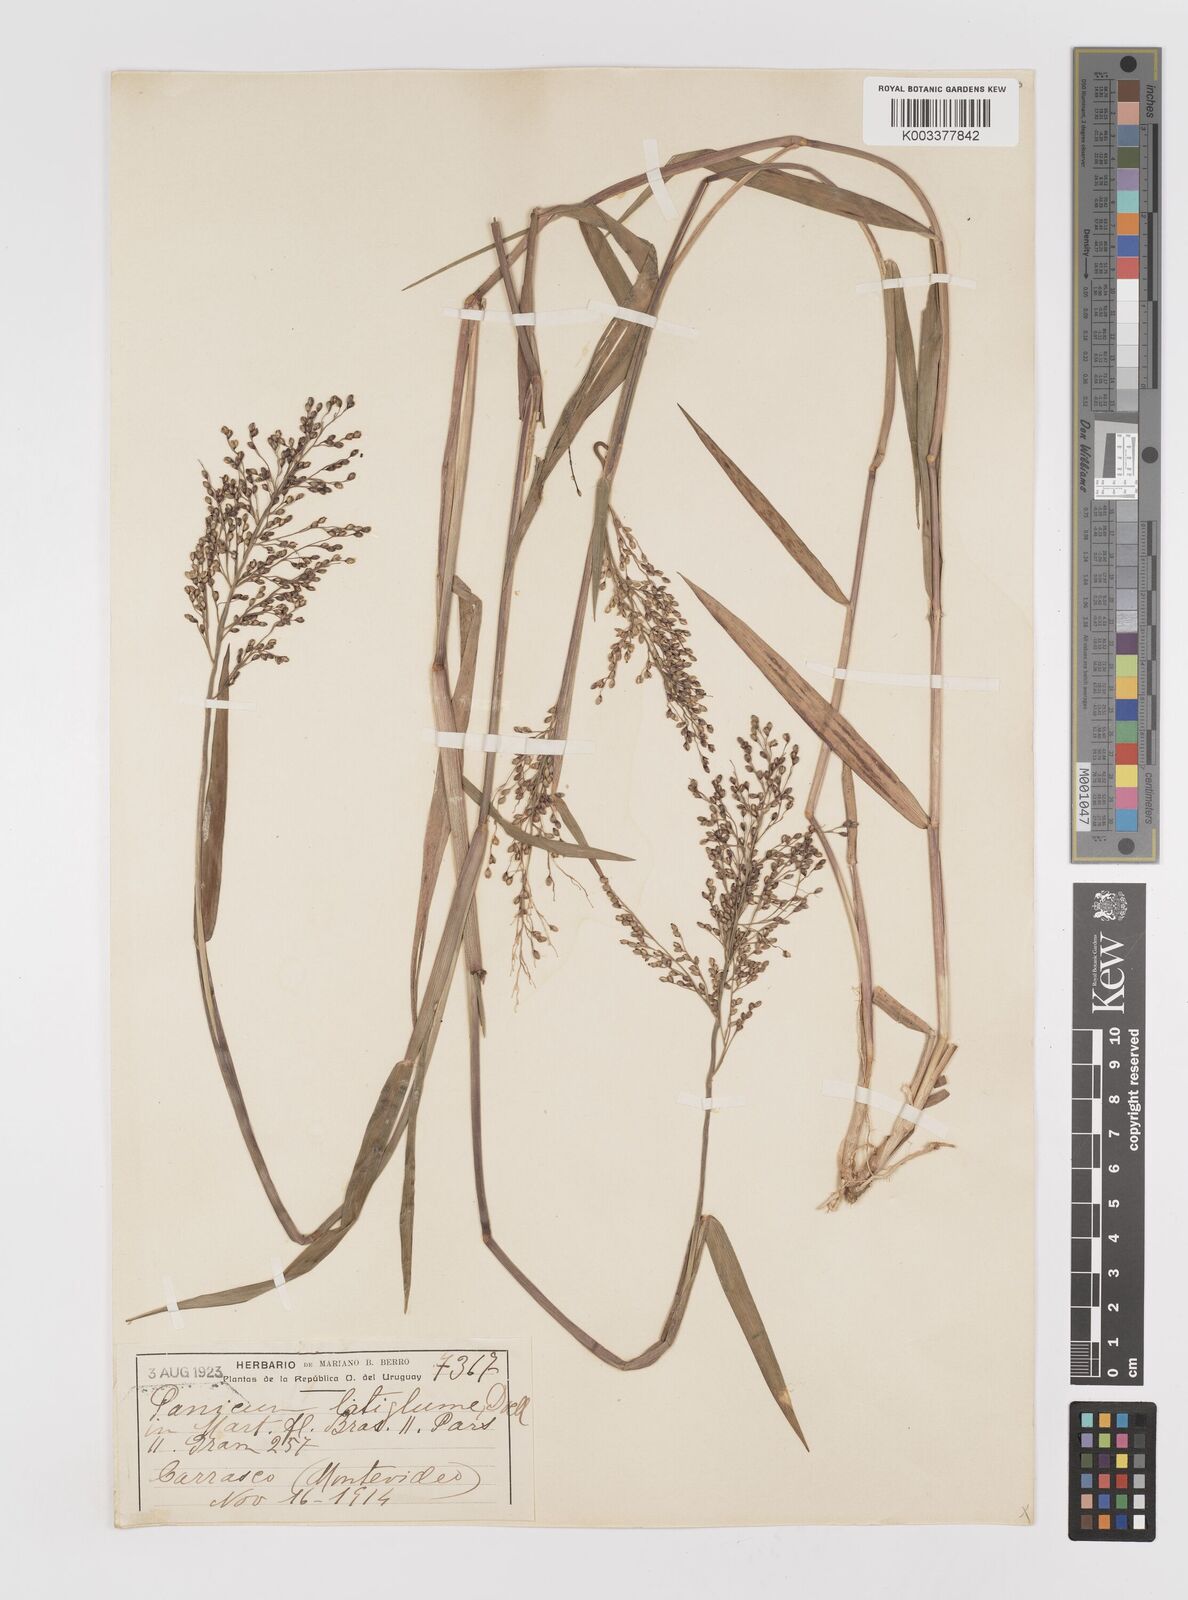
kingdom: Plantae
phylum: Tracheophyta
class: Liliopsida
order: Poales
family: Poaceae
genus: Dichanthelium
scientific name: Dichanthelium sabulorum
